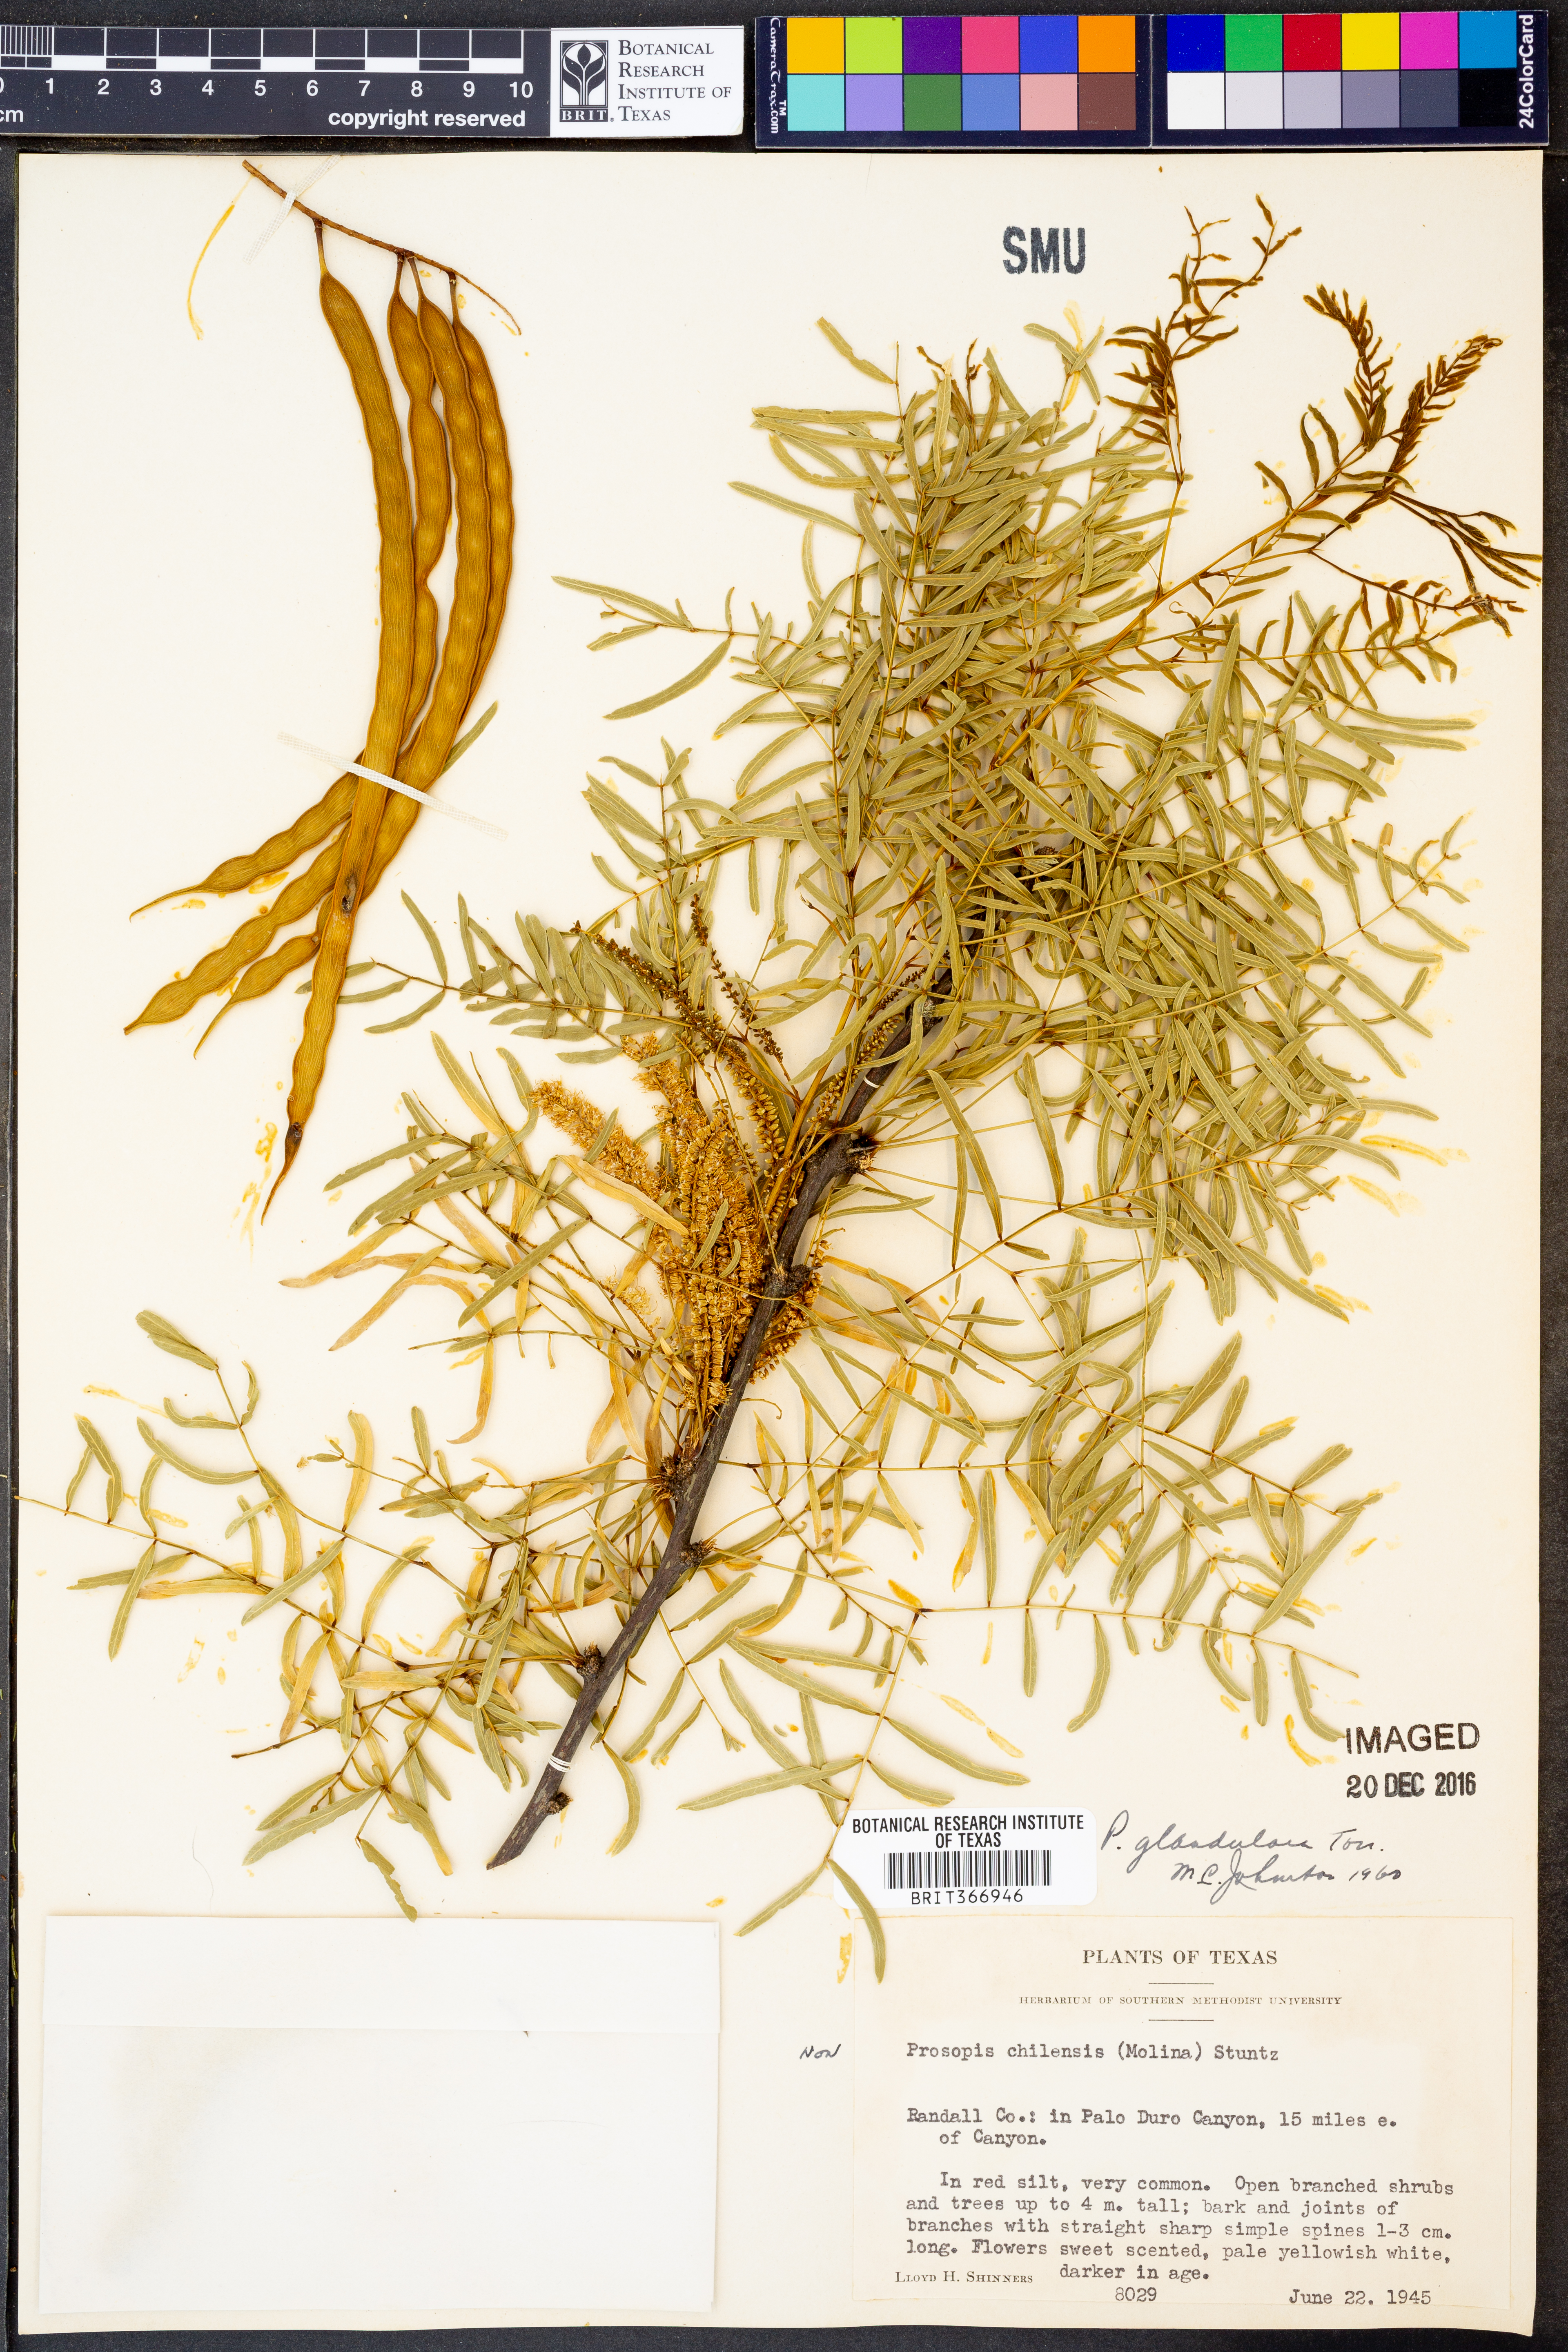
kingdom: Plantae
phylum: Tracheophyta
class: Magnoliopsida
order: Fabales
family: Fabaceae
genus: Prosopis
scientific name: Prosopis glandulosa
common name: Honey mesquite
